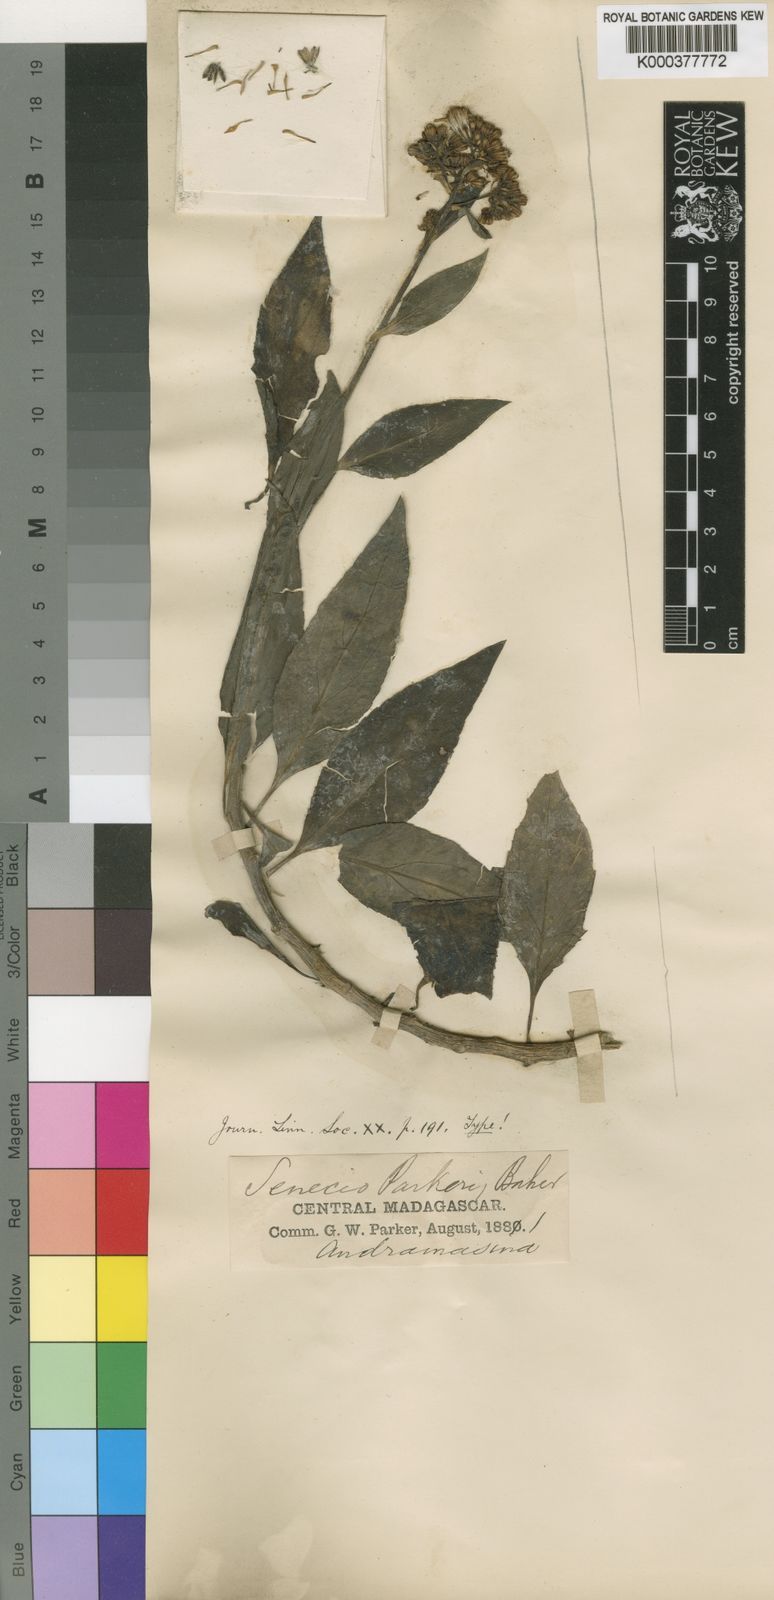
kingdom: Plantae
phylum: Tracheophyta
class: Magnoliopsida
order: Asterales
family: Asteraceae
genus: Senecio
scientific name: Senecio hadiensis
